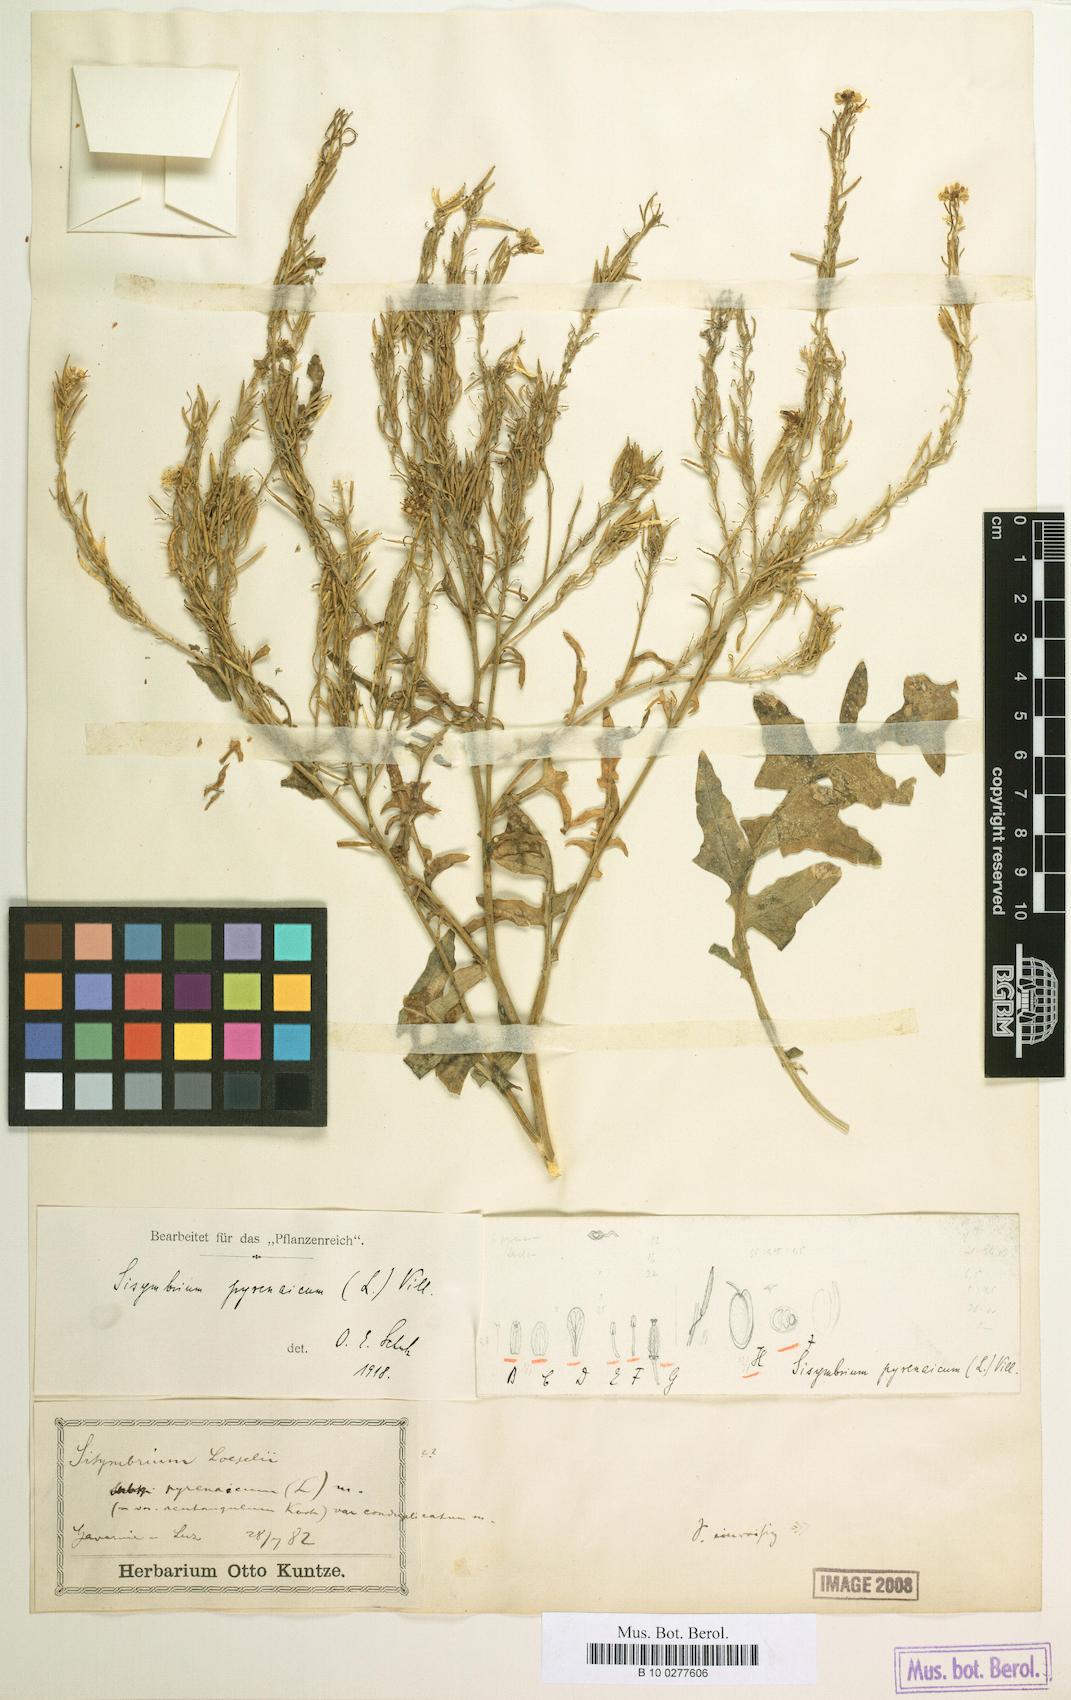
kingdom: Plantae
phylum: Tracheophyta
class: Magnoliopsida
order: Brassicales
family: Brassicaceae
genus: Rorippa
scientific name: Rorippa pyrenaica
